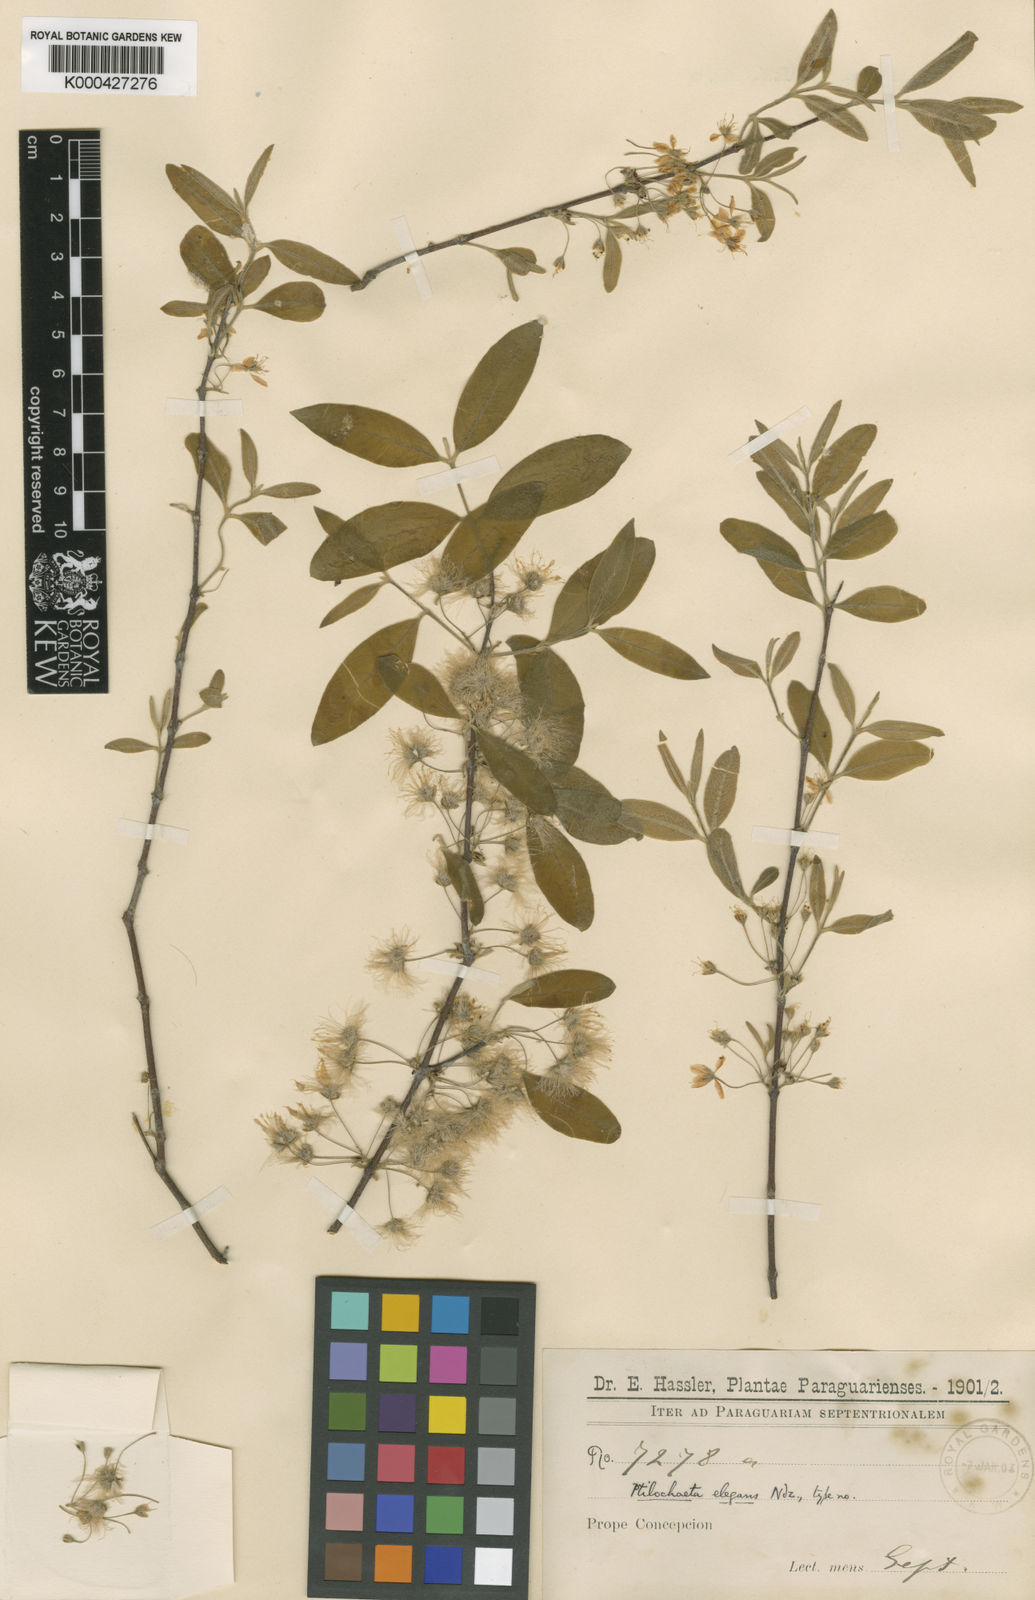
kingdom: Plantae
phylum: Tracheophyta
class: Magnoliopsida
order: Malpighiales
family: Malpighiaceae
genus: Ptilochaeta
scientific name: Ptilochaeta densiflora
